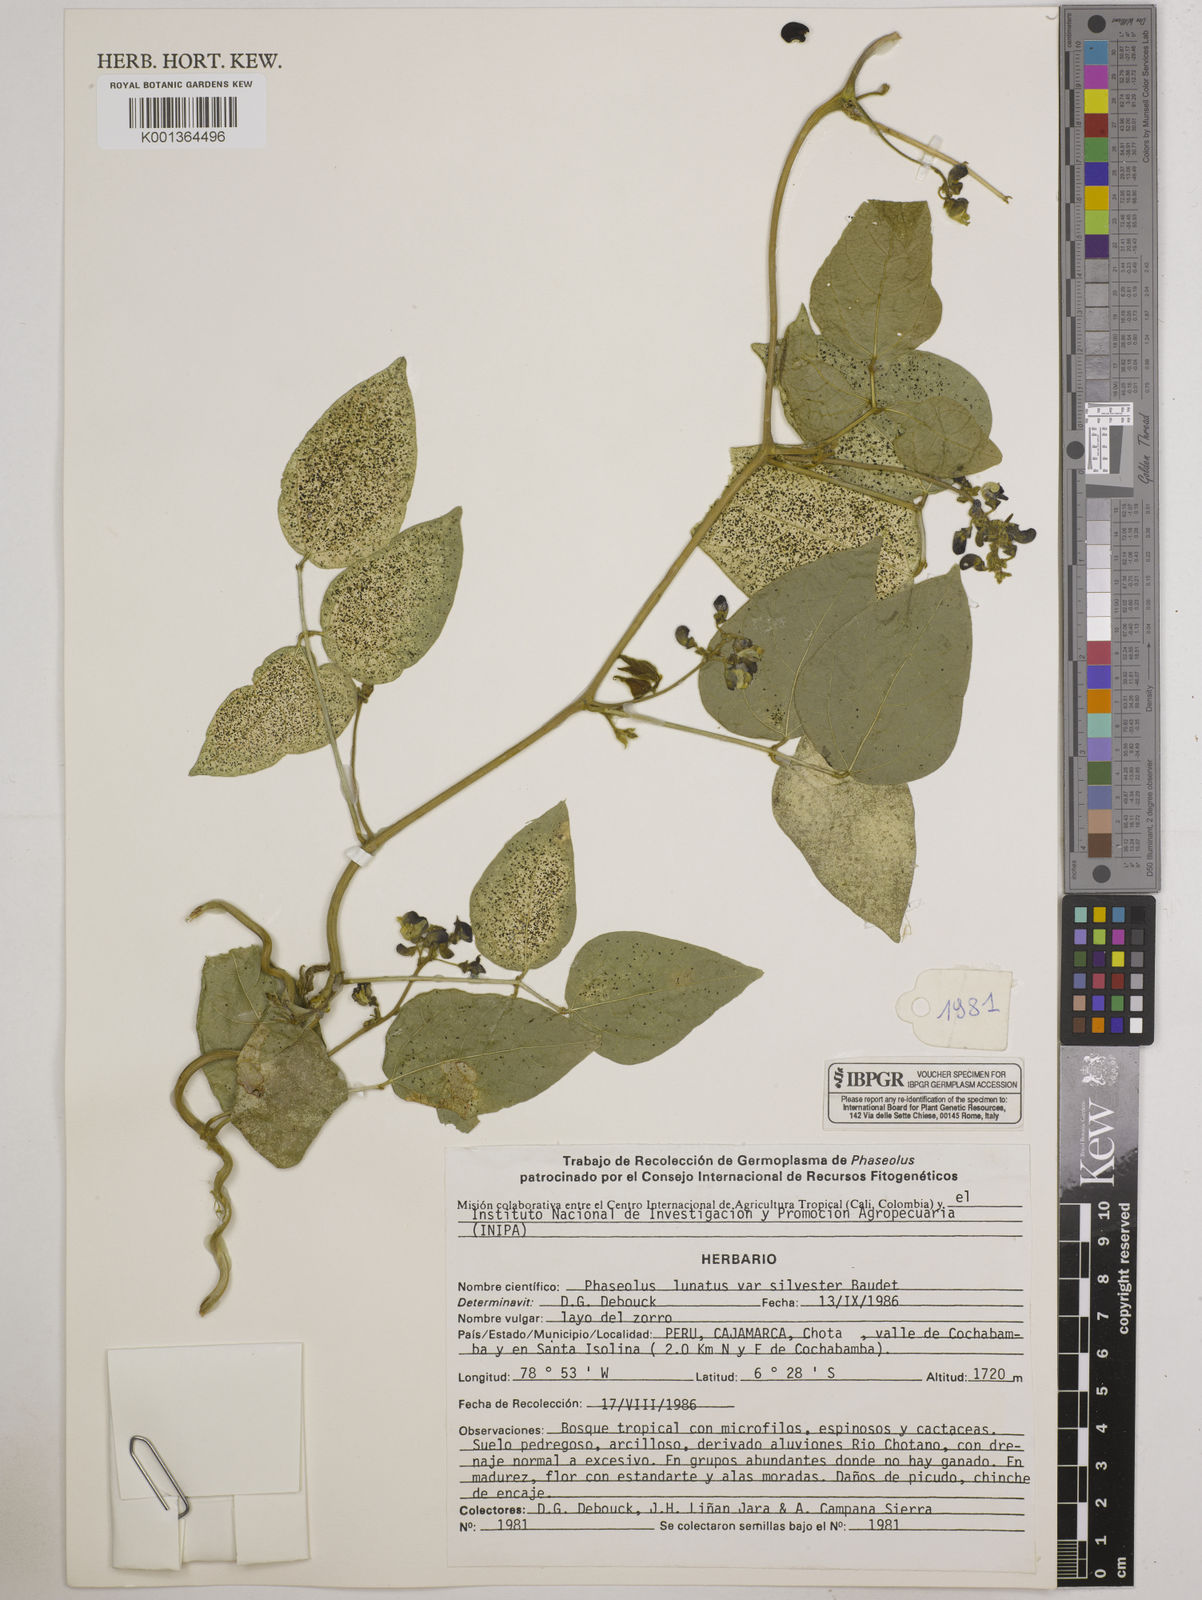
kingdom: Plantae
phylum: Tracheophyta
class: Magnoliopsida
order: Fabales
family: Fabaceae
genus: Phaseolus
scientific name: Phaseolus lunatus
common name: Sieva bean
